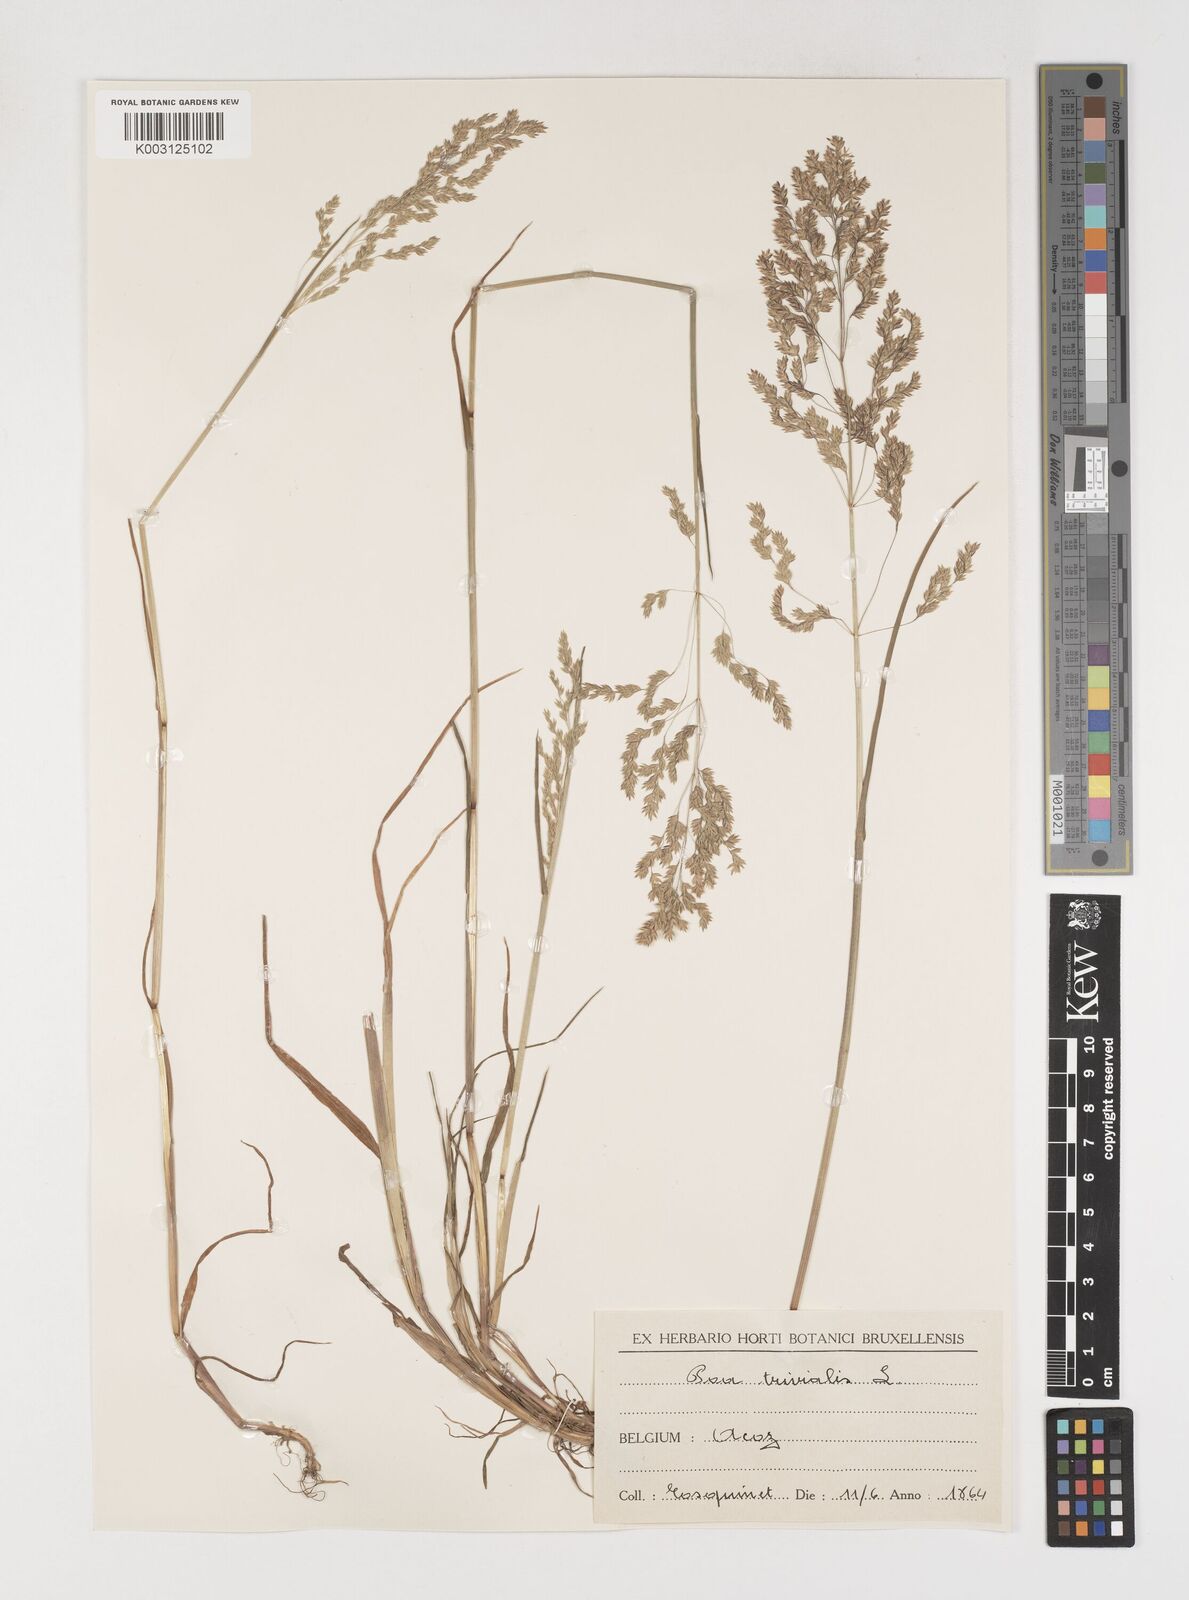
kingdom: Plantae
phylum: Tracheophyta
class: Liliopsida
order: Poales
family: Poaceae
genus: Poa
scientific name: Poa trivialis
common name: Rough bluegrass
